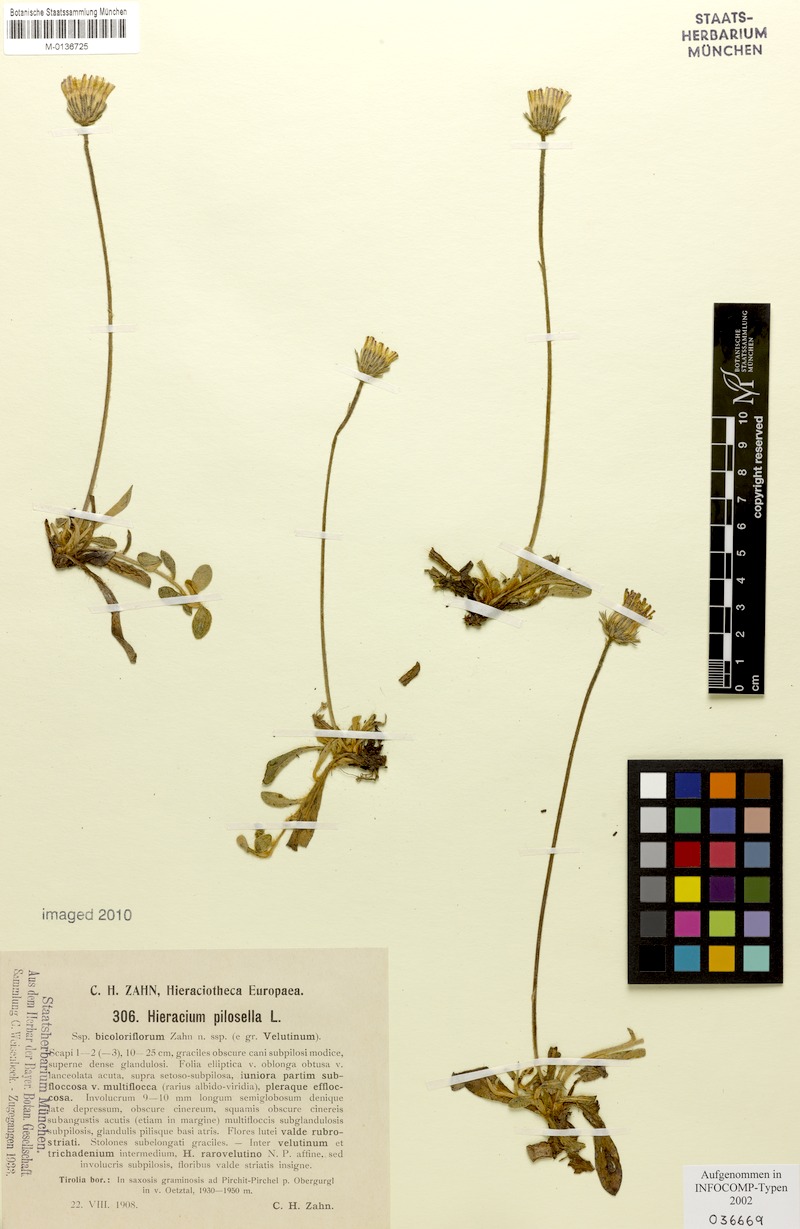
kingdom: Plantae
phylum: Tracheophyta
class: Magnoliopsida
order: Asterales
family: Asteraceae
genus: Pilosella
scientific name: Pilosella officinarum
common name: Mouse-ear hawkweed
